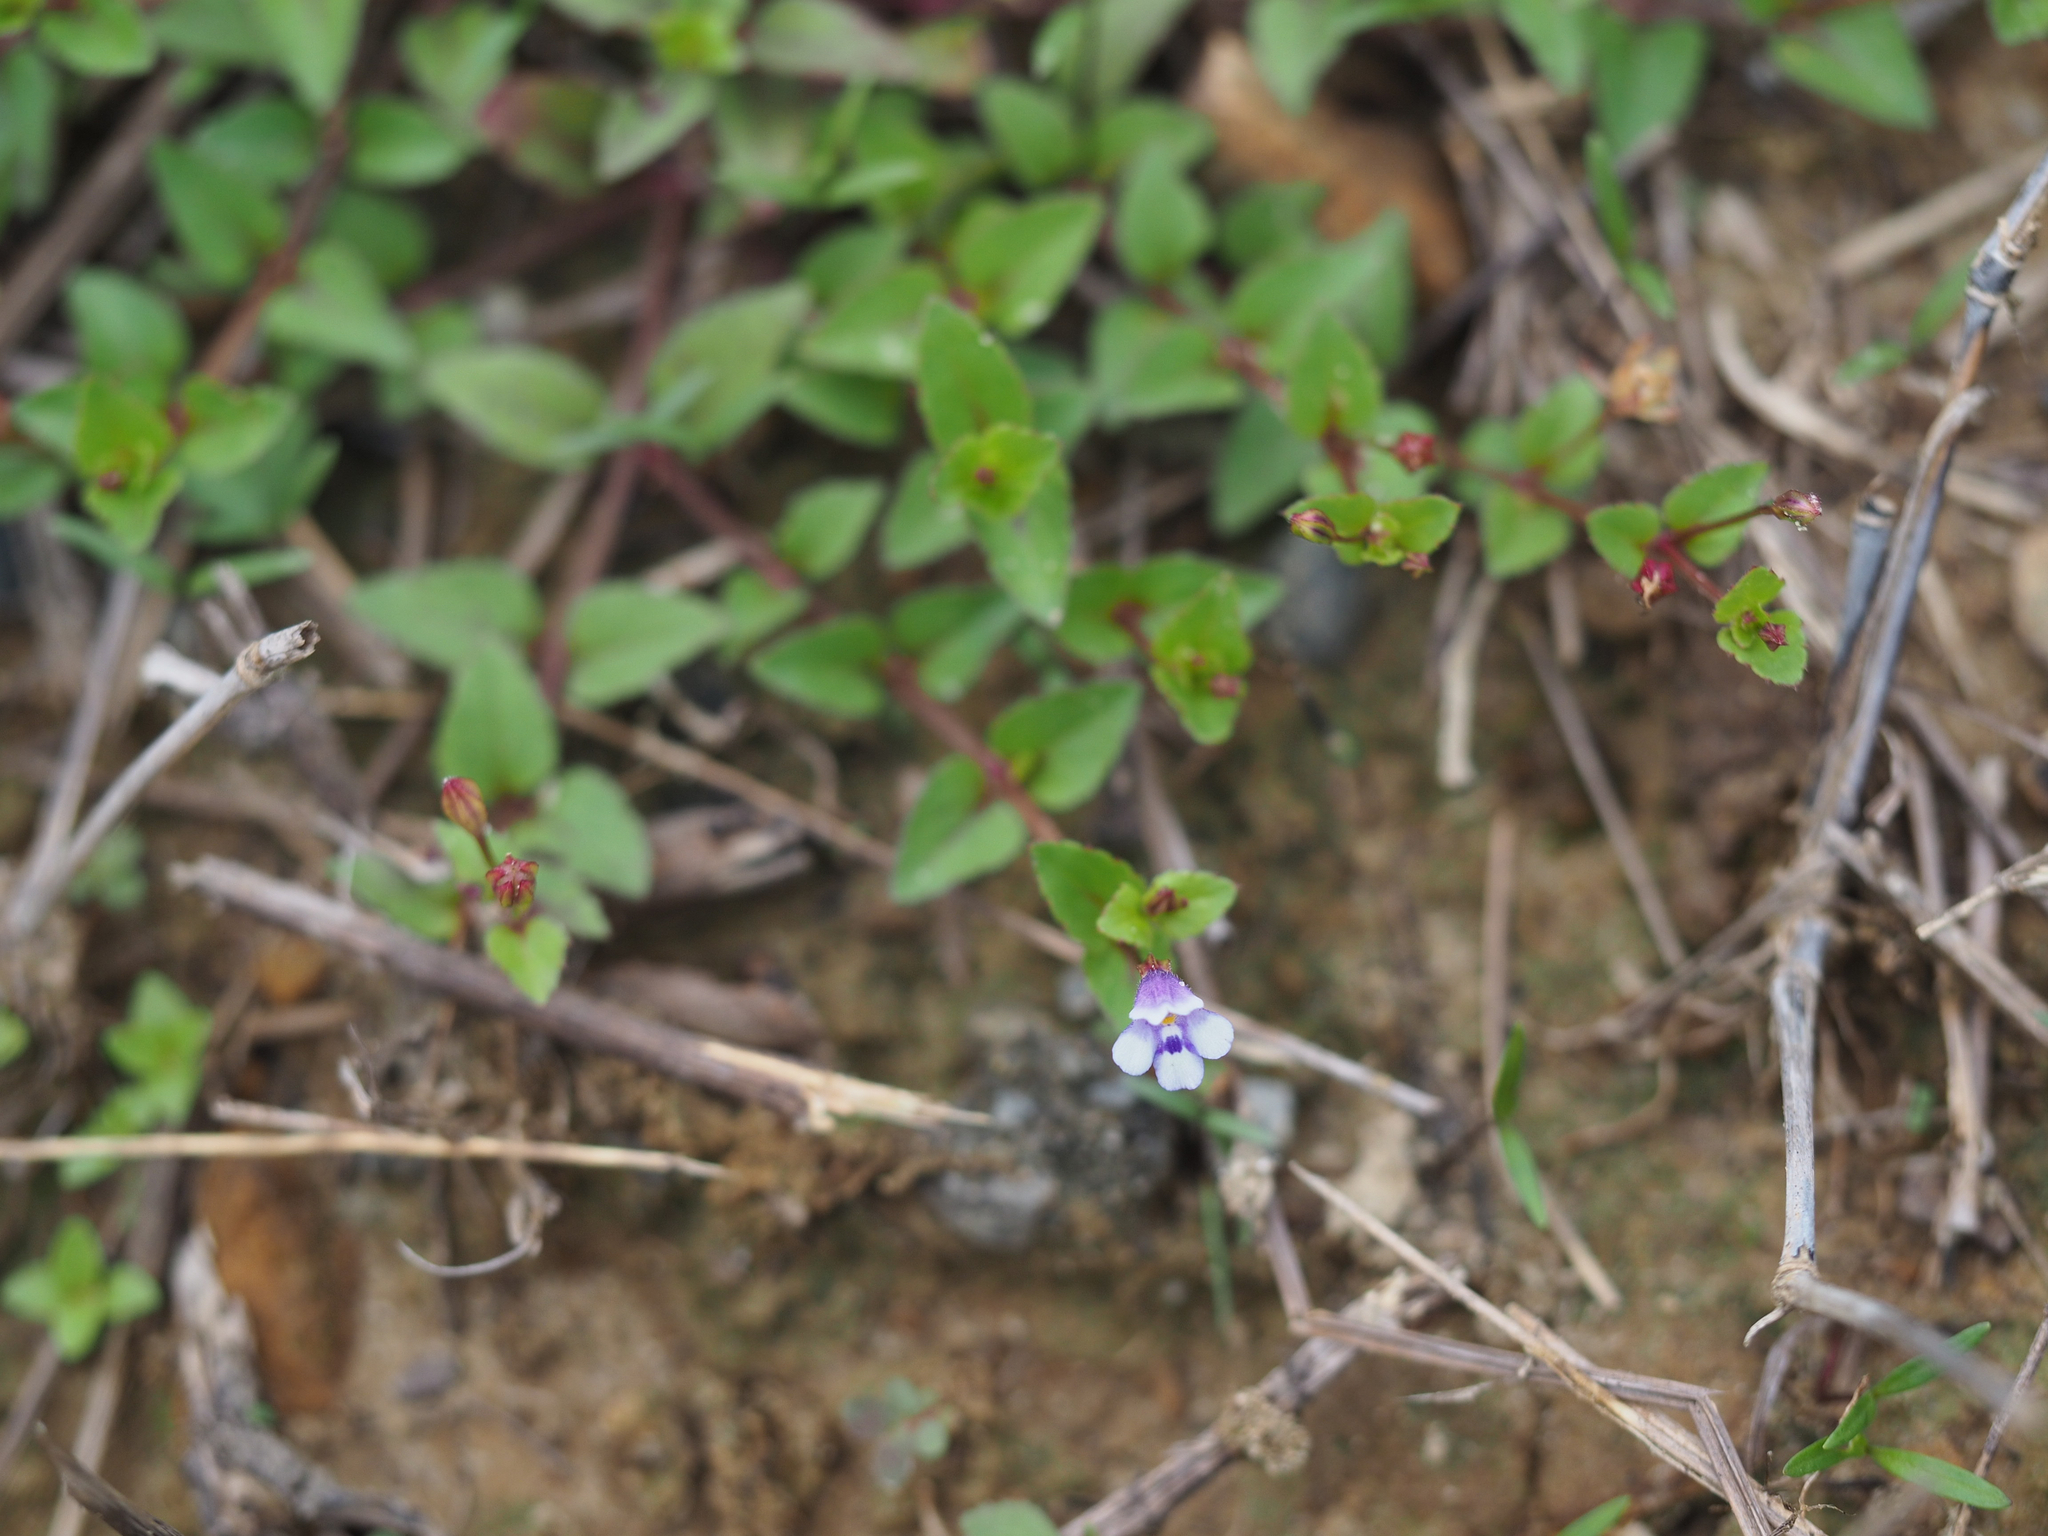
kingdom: Plantae
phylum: Tracheophyta
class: Magnoliopsida
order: Lamiales
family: Linderniaceae
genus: Torenia
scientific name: Torenia crustacea
